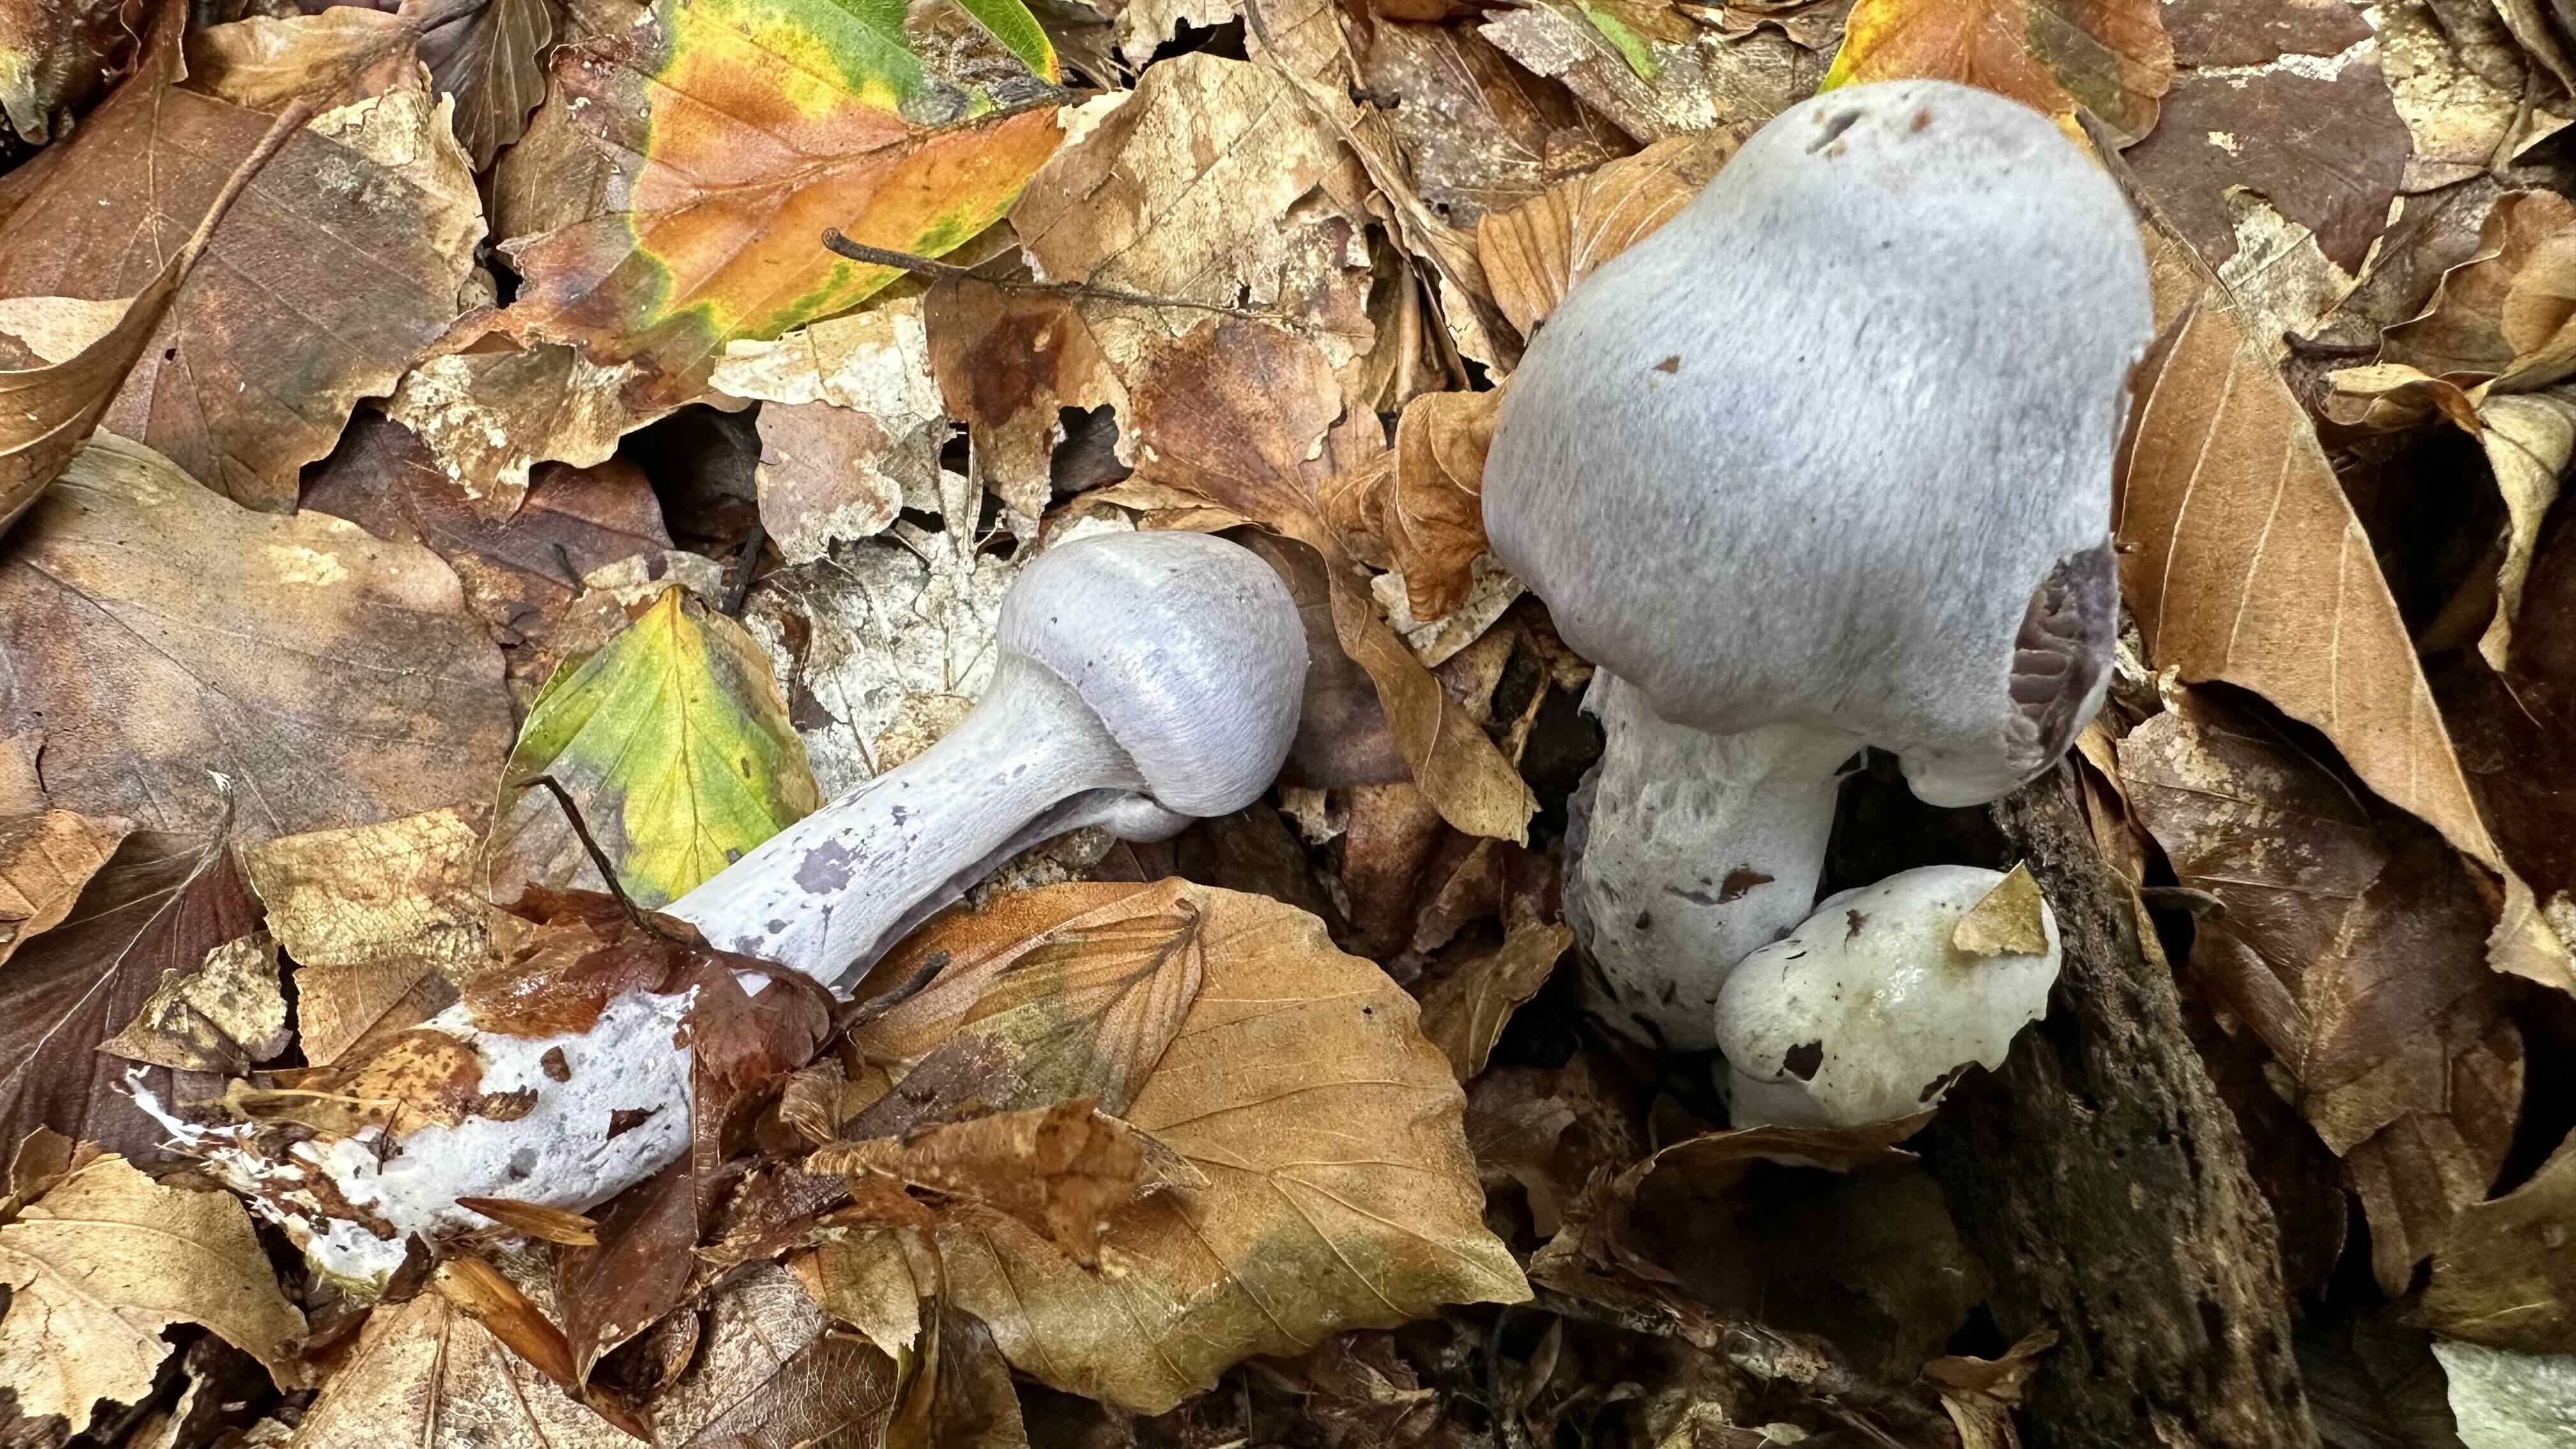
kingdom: Fungi
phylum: Basidiomycota
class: Agaricomycetes
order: Agaricales
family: Cortinariaceae
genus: Cortinarius
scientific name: Cortinarius alboviolaceus
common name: lysviolet slørhat
